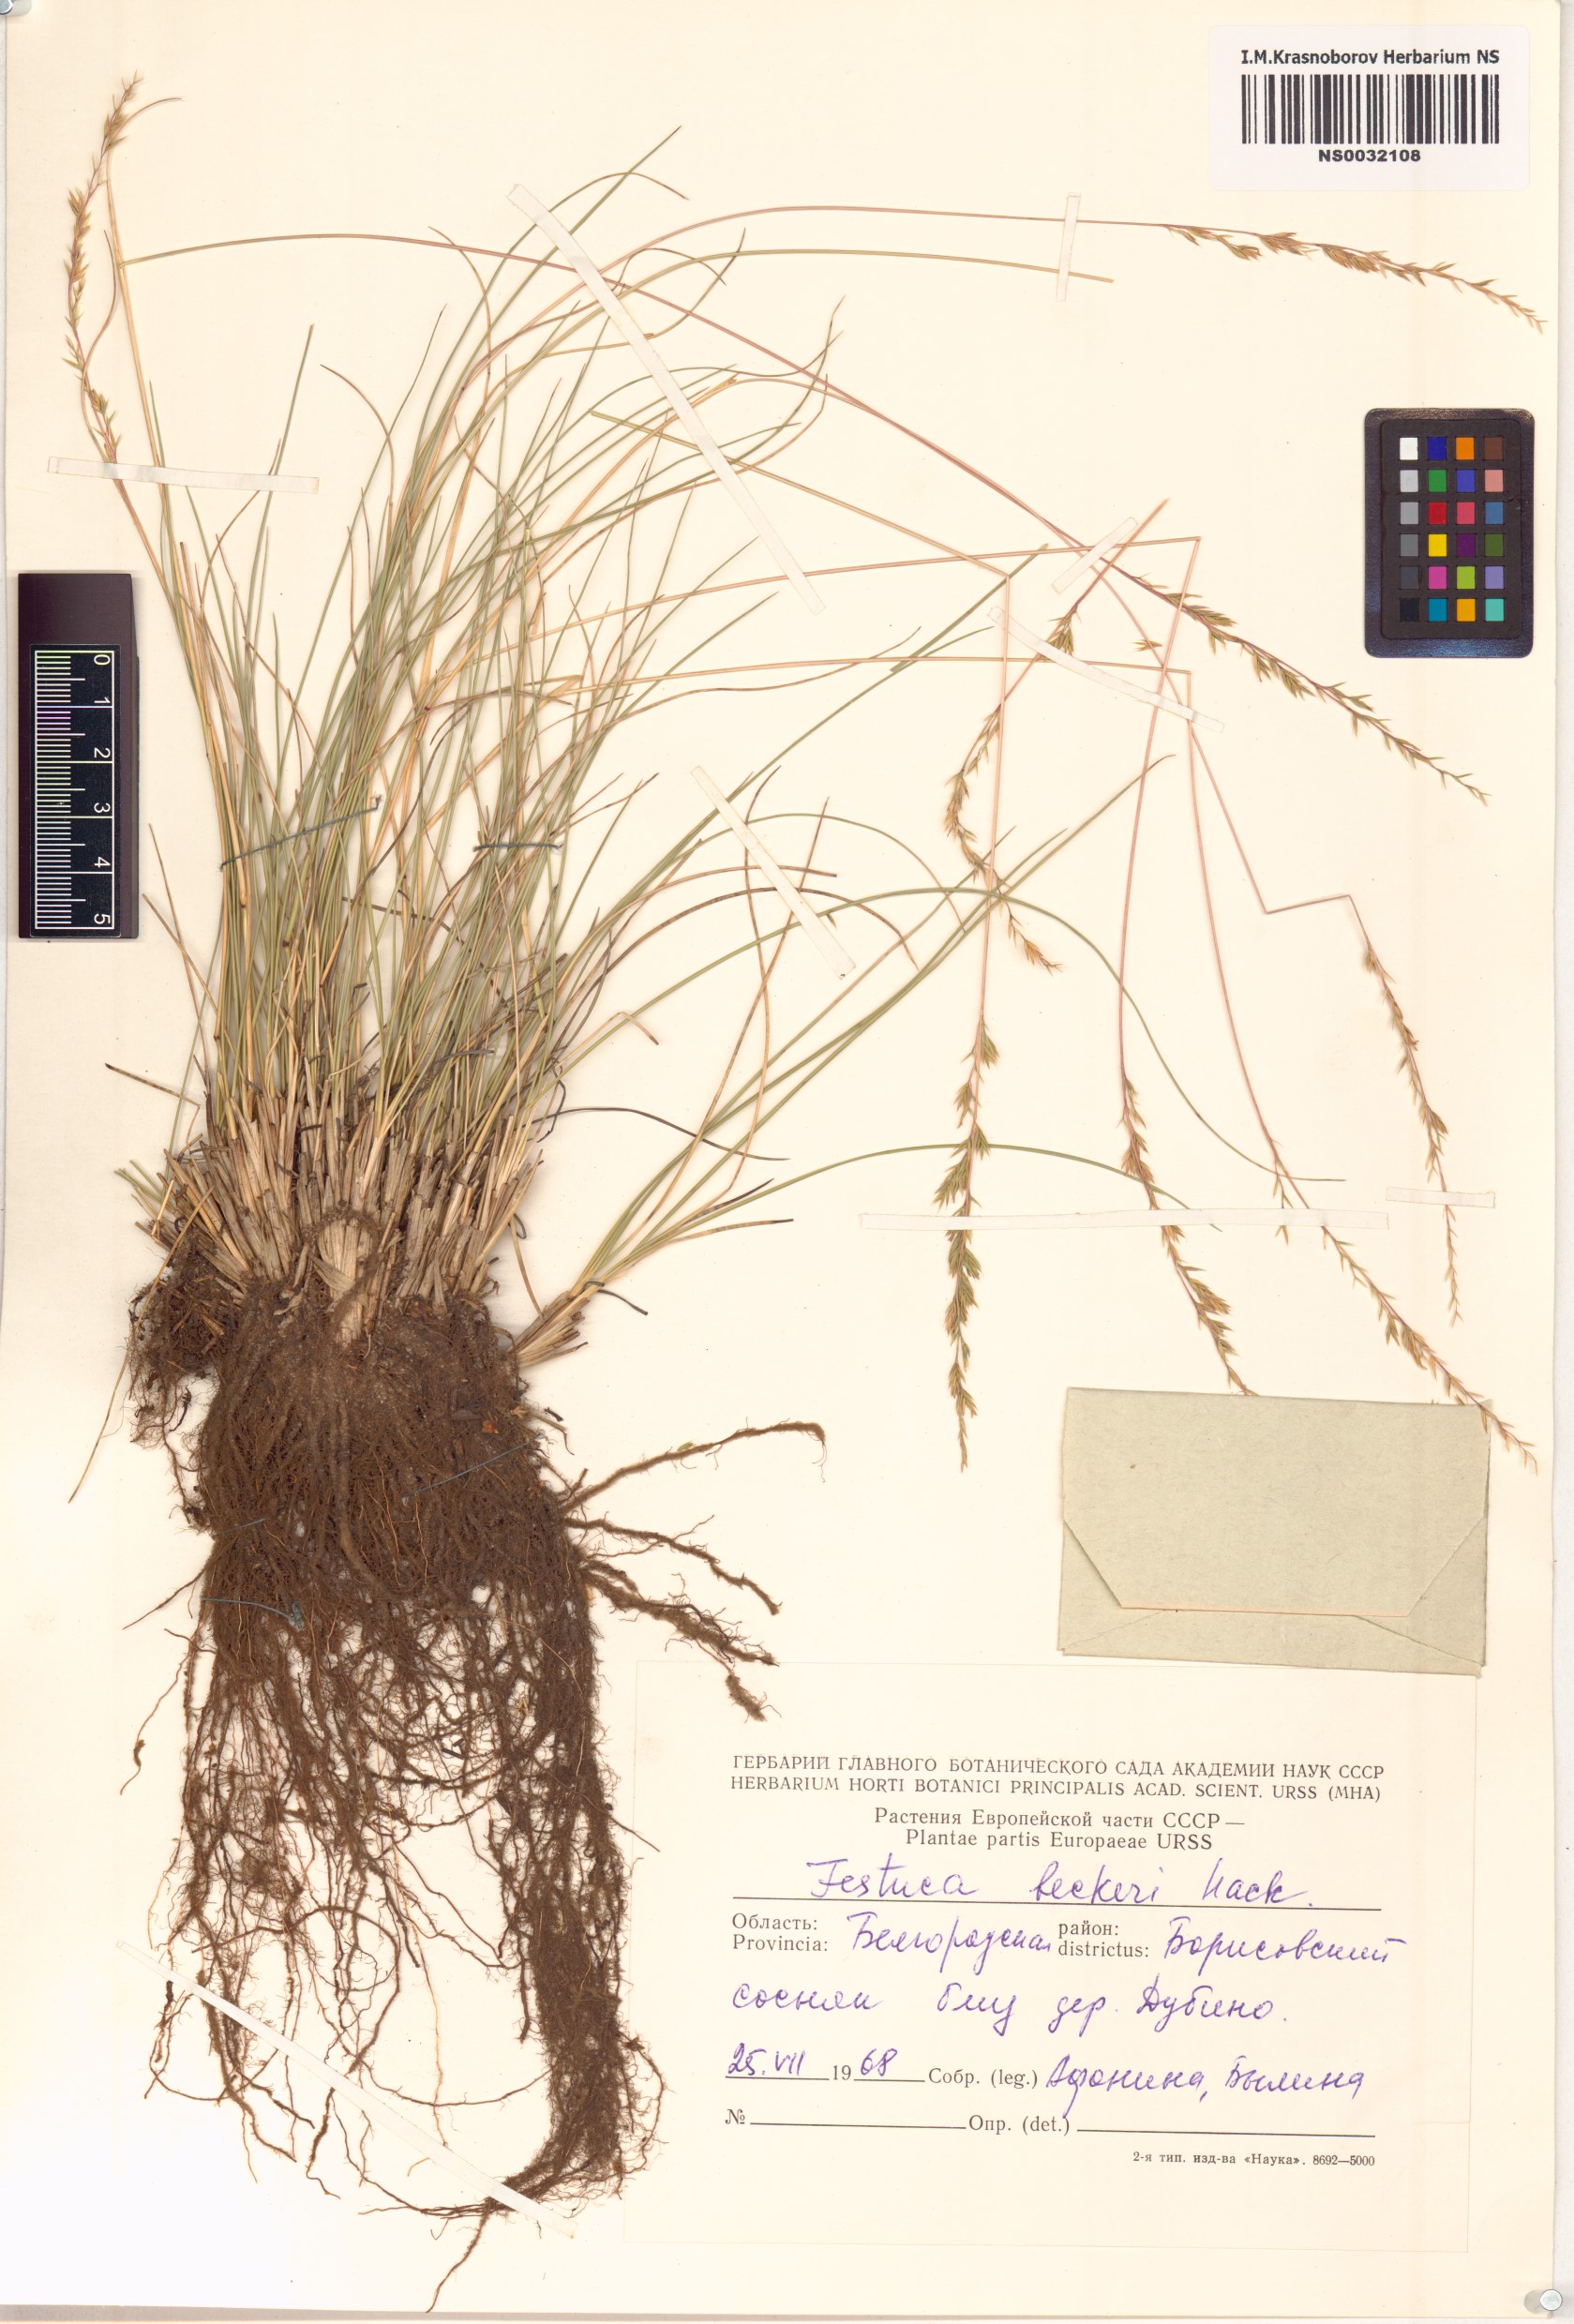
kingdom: Plantae
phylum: Tracheophyta
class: Liliopsida
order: Poales
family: Poaceae
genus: Festuca
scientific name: Festuca beckeri
